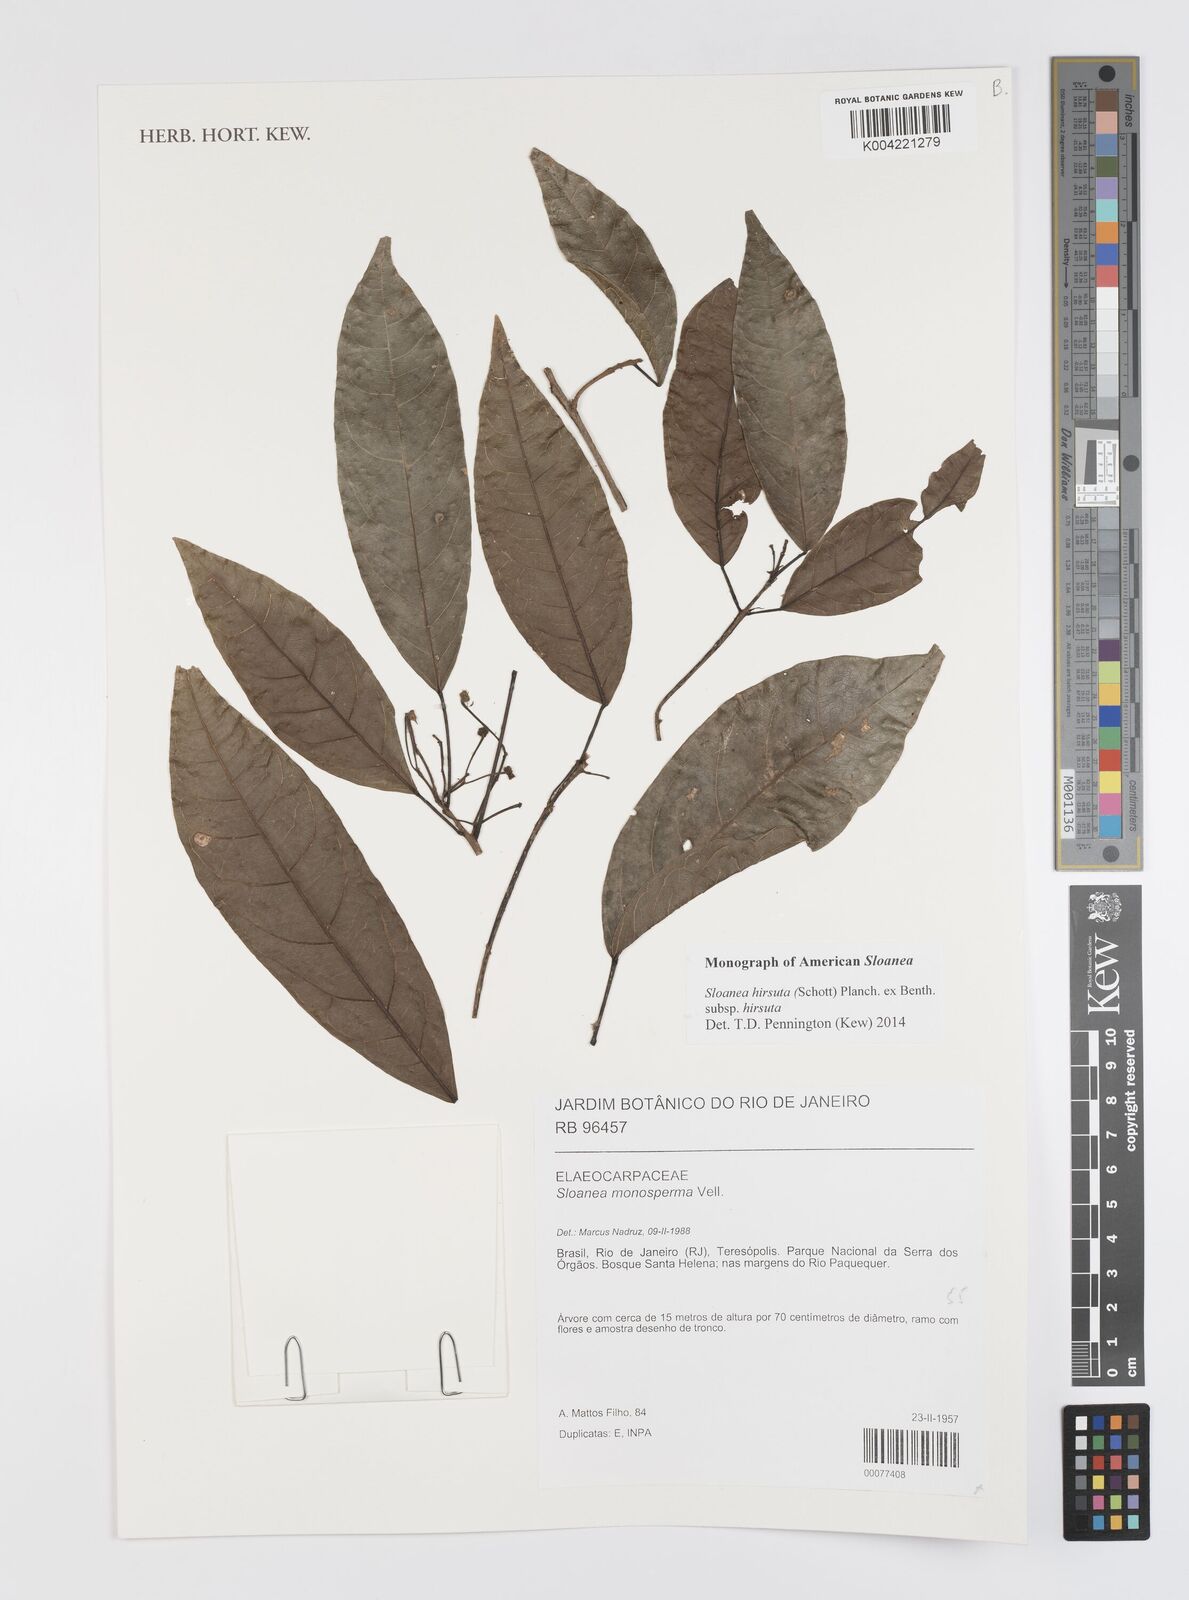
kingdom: Plantae
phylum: Tracheophyta
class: Magnoliopsida
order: Oxalidales
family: Elaeocarpaceae
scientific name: Elaeocarpaceae
